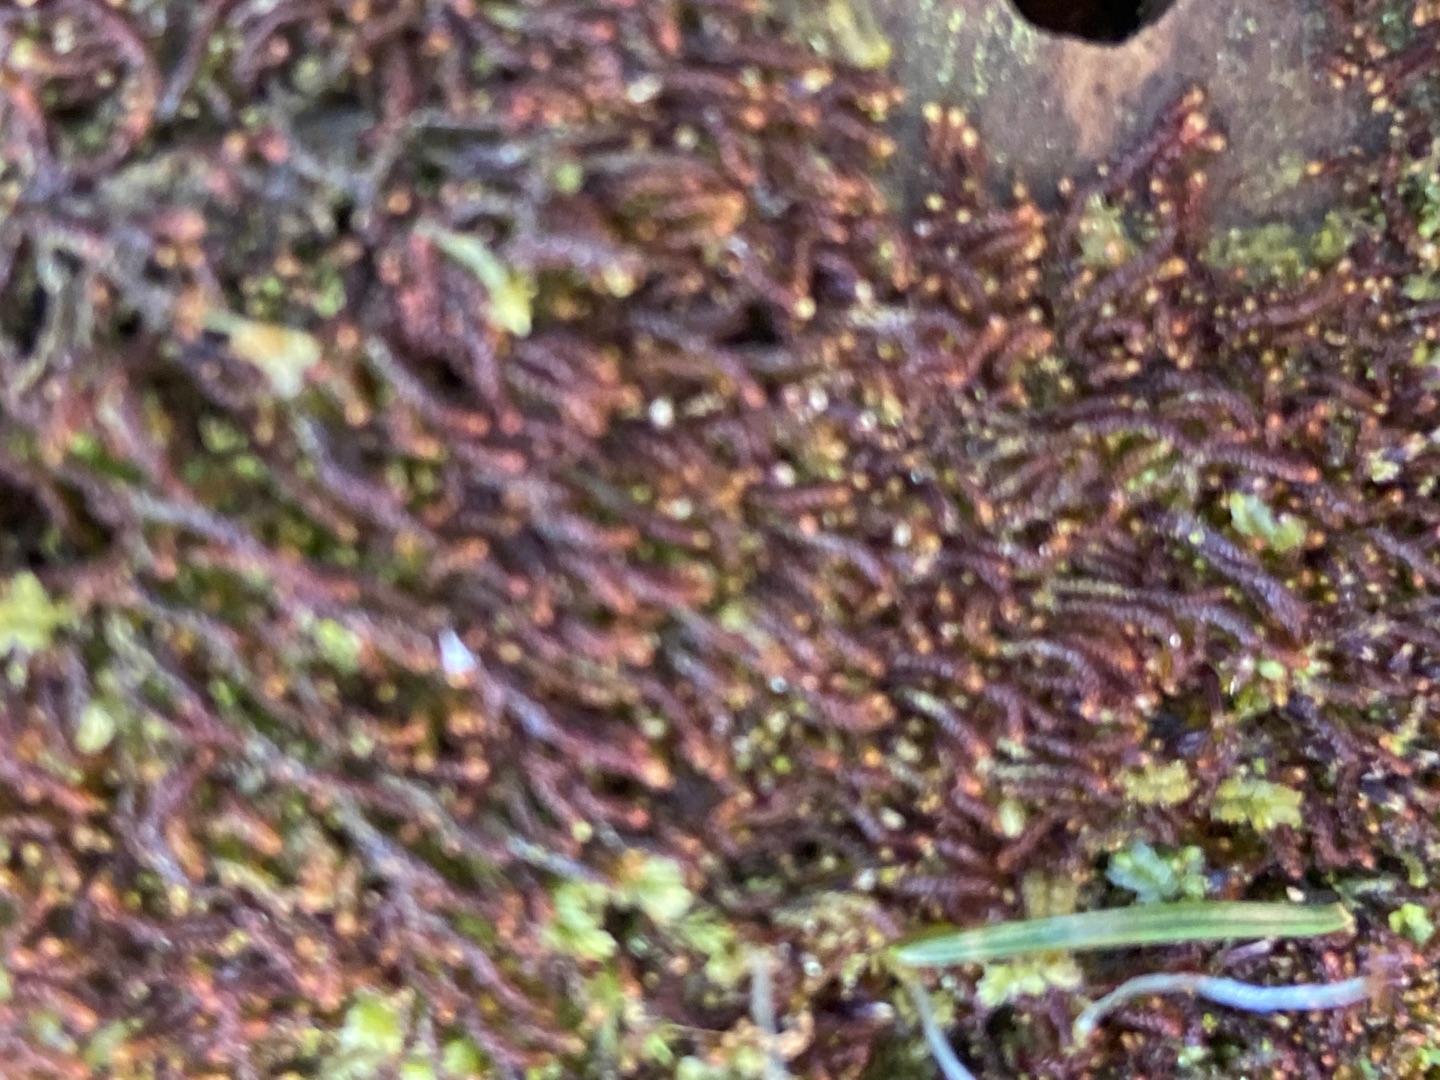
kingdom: Plantae
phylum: Marchantiophyta
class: Jungermanniopsida
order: Jungermanniales
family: Cephaloziaceae
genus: Nowellia
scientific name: Nowellia curvifolia
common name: Krumbladet stødmos
